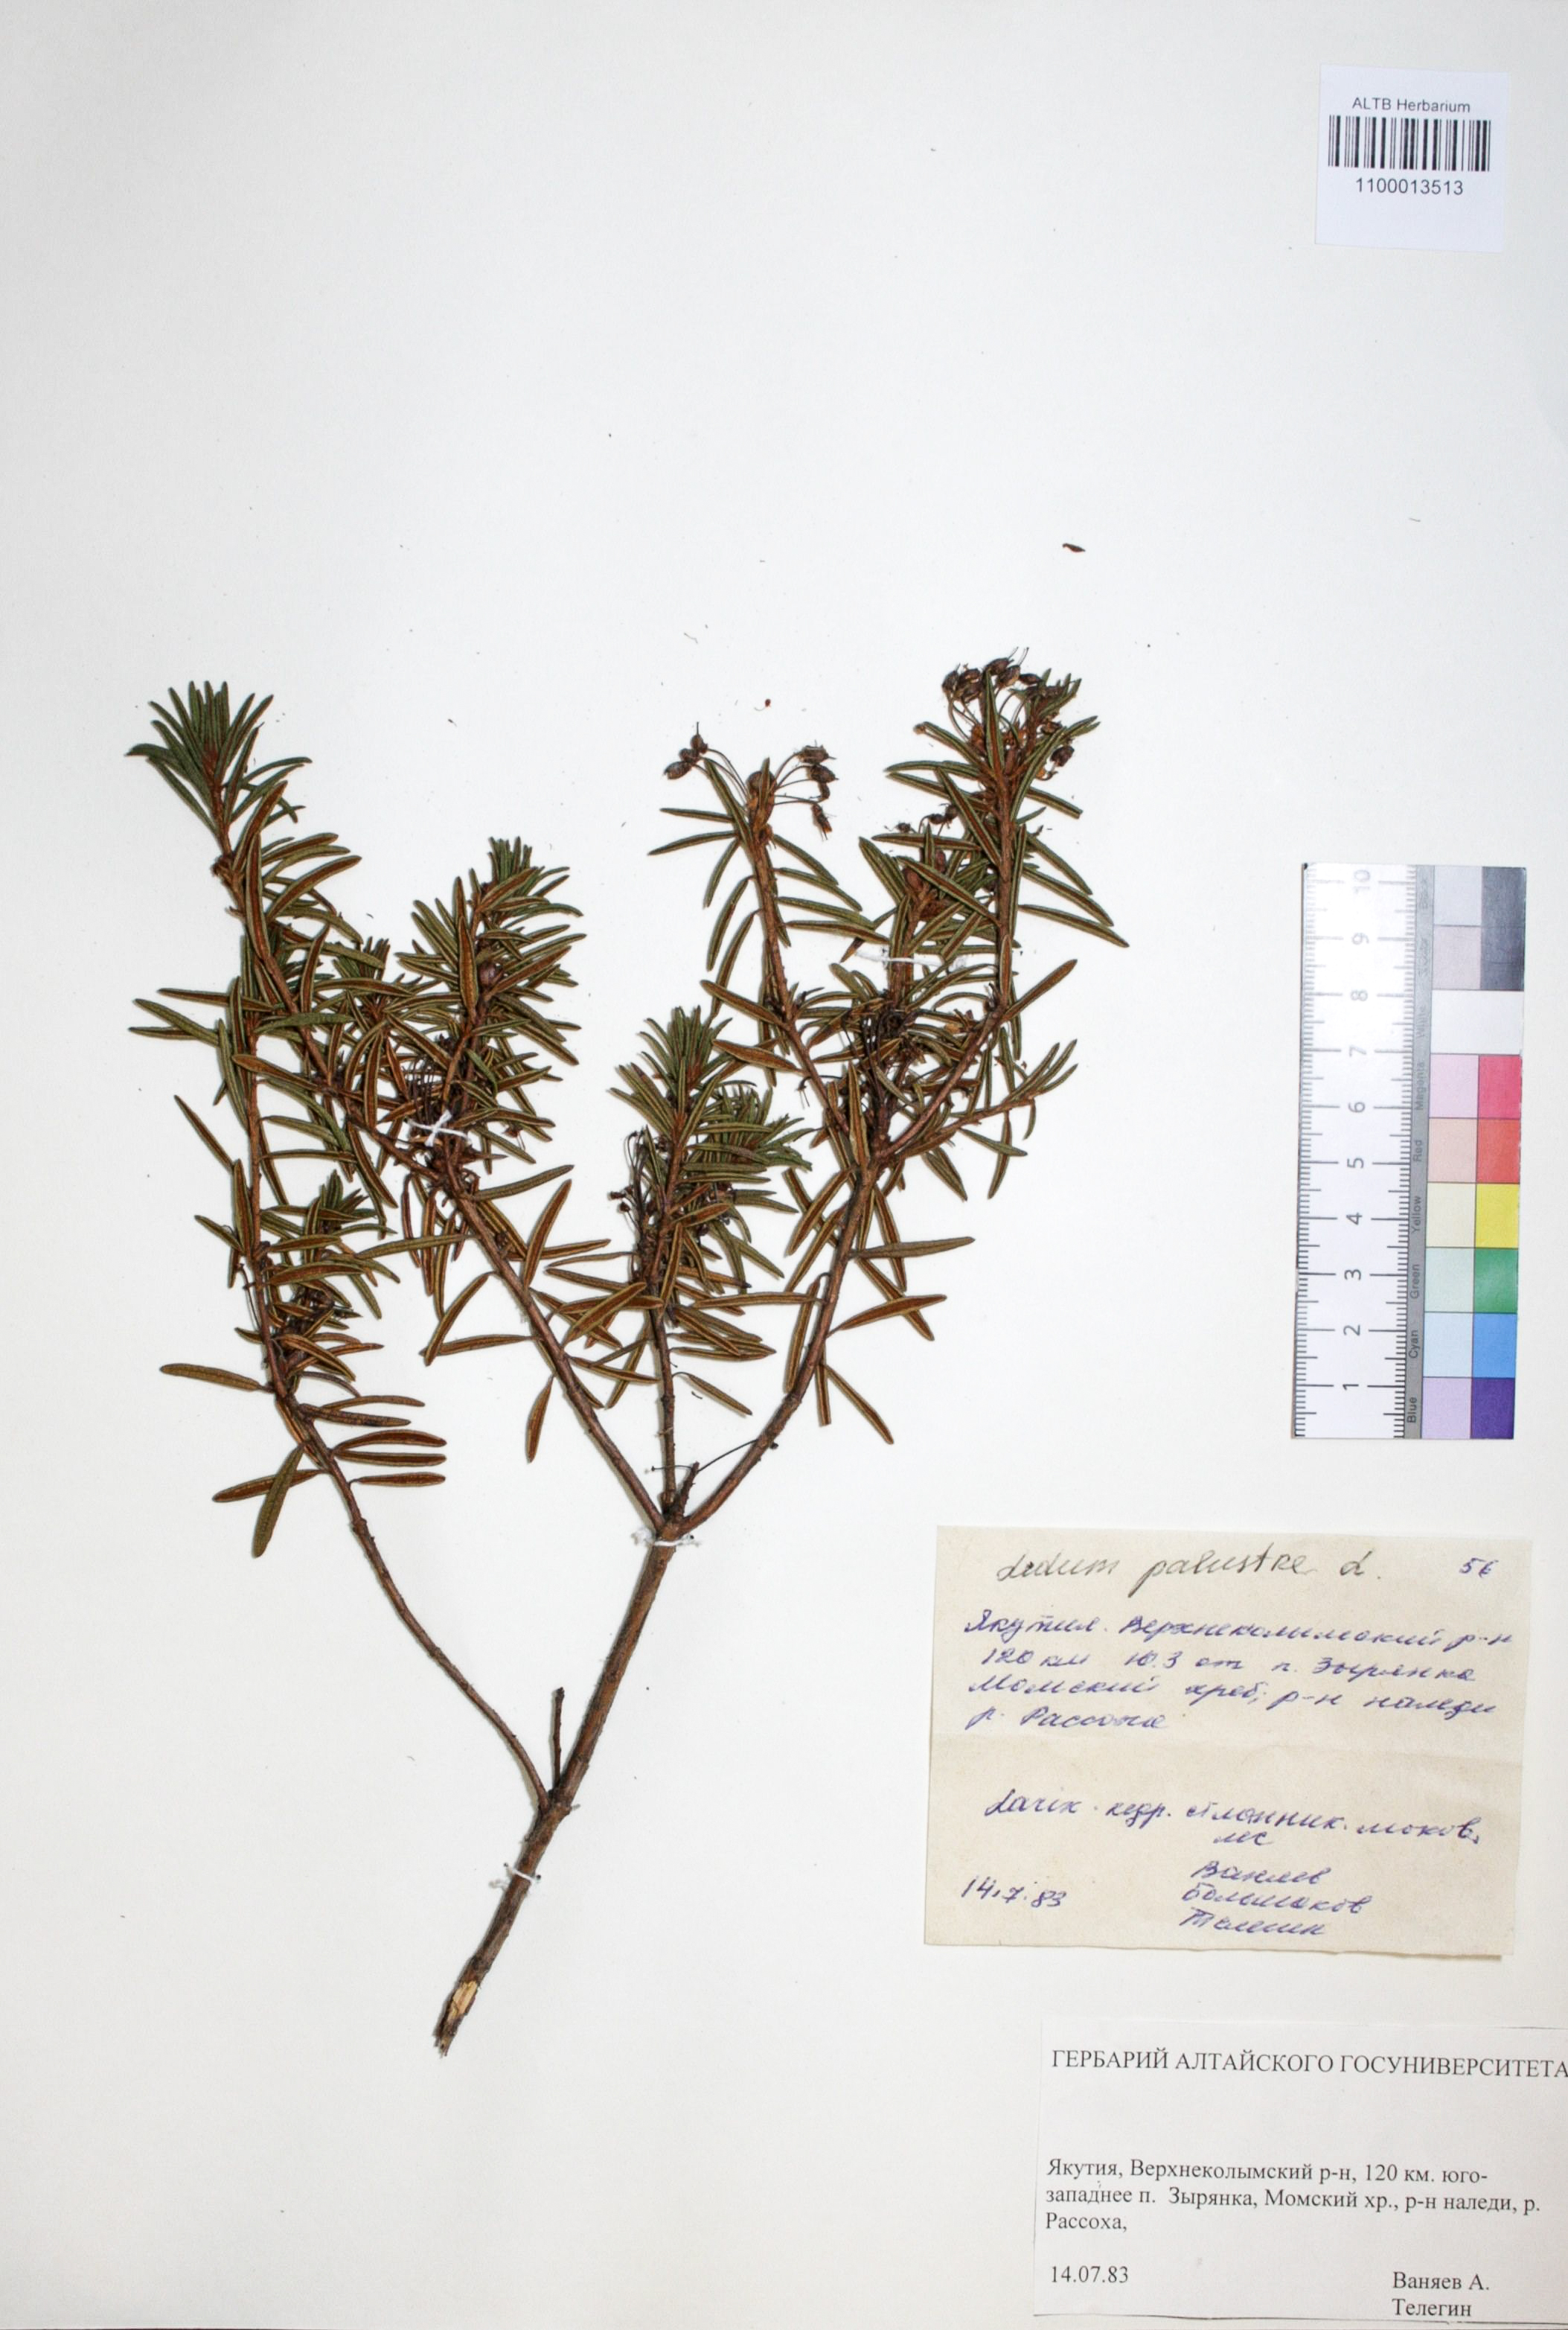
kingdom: Plantae
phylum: Tracheophyta
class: Magnoliopsida
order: Ericales
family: Ericaceae
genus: Rhododendron
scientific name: Rhododendron tomentosum
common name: Marsh labrador tea
